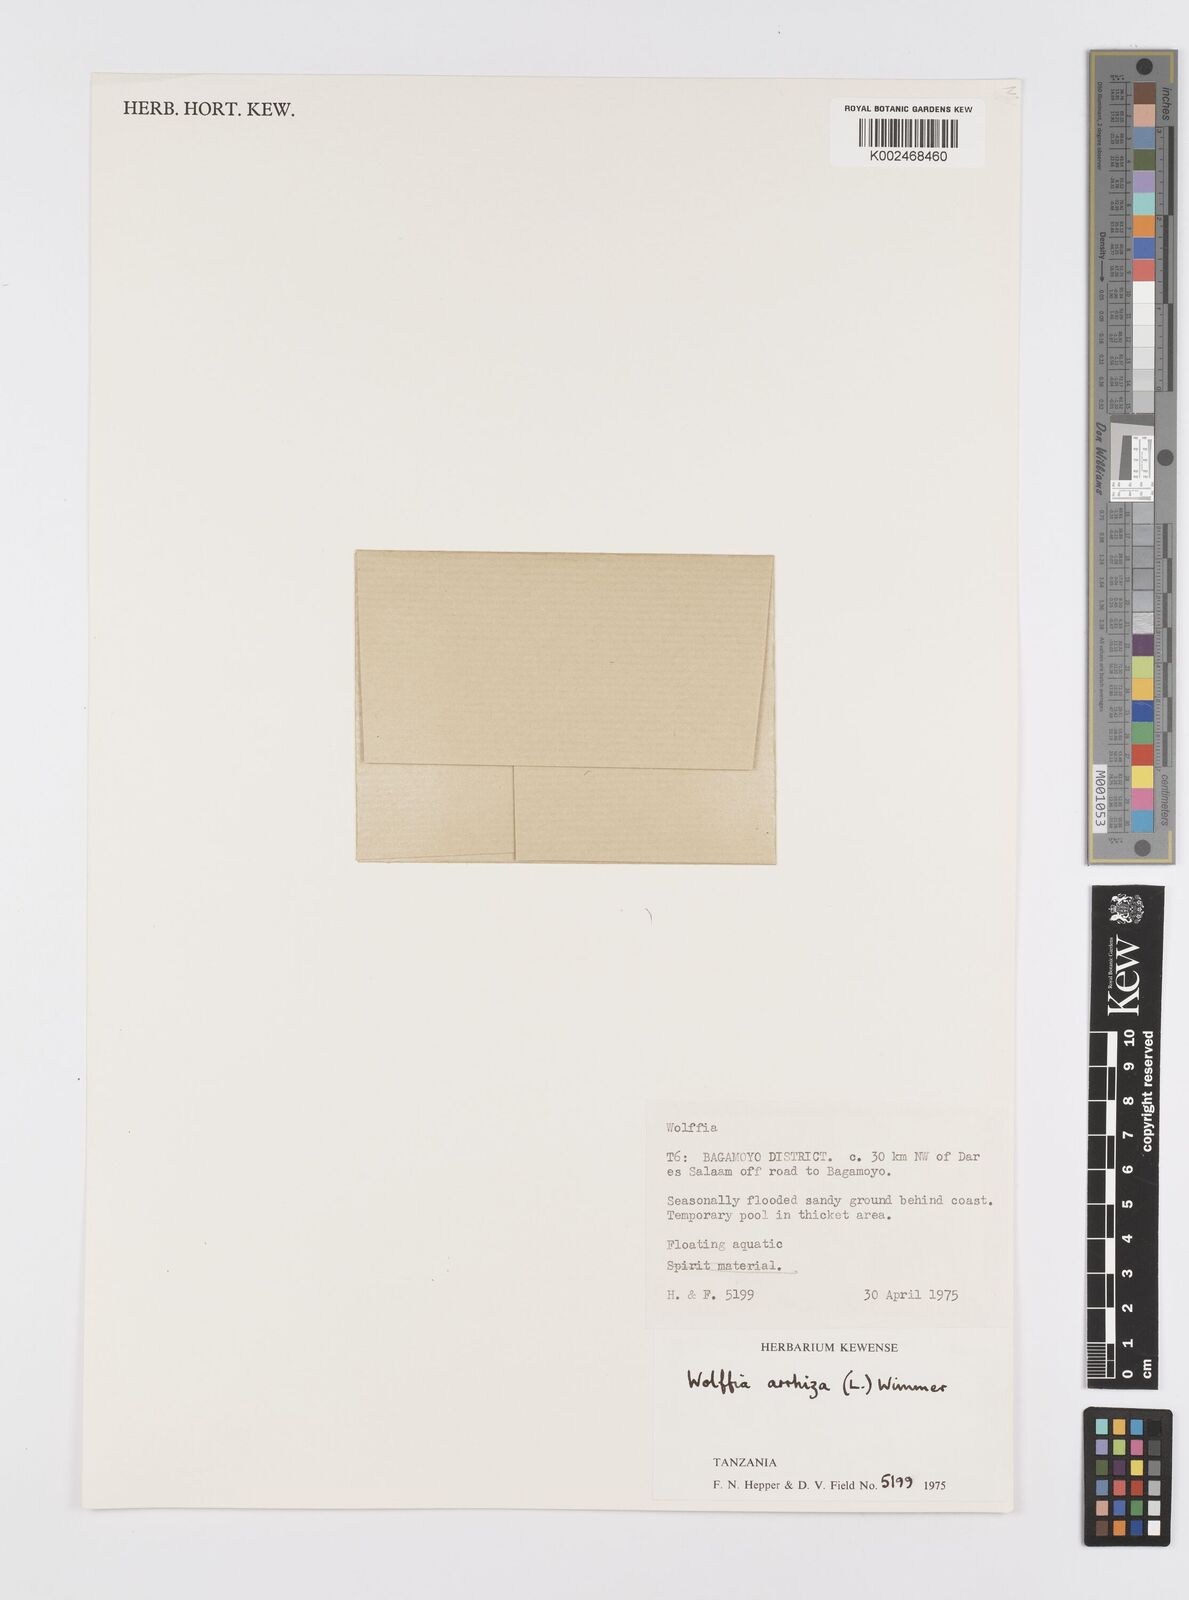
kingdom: Plantae
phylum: Tracheophyta
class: Liliopsida
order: Alismatales
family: Araceae
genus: Wolffia
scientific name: Wolffia arrhiza
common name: Rootless duckweed
